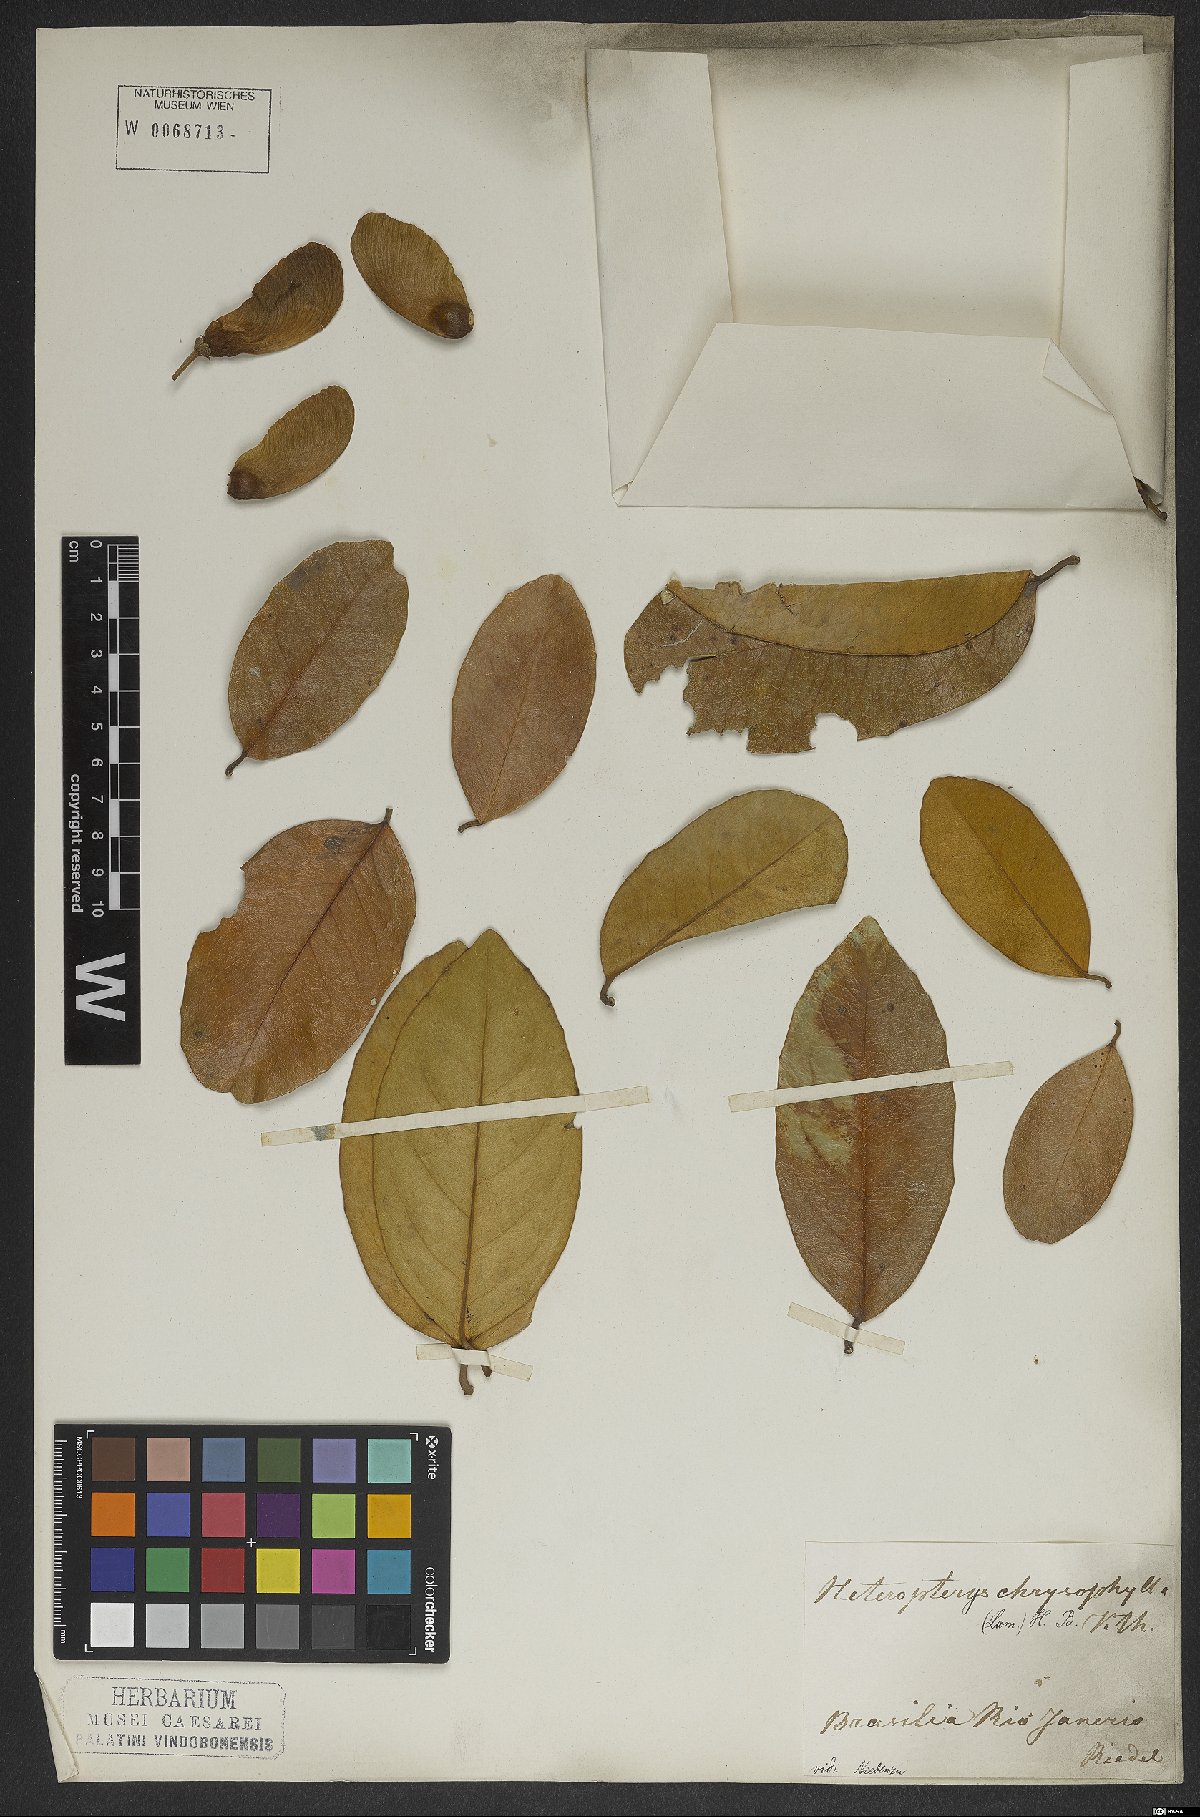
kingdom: Plantae
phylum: Tracheophyta
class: Magnoliopsida
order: Malpighiales
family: Malpighiaceae
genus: Heteropterys
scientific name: Heteropterys chrysophylla
